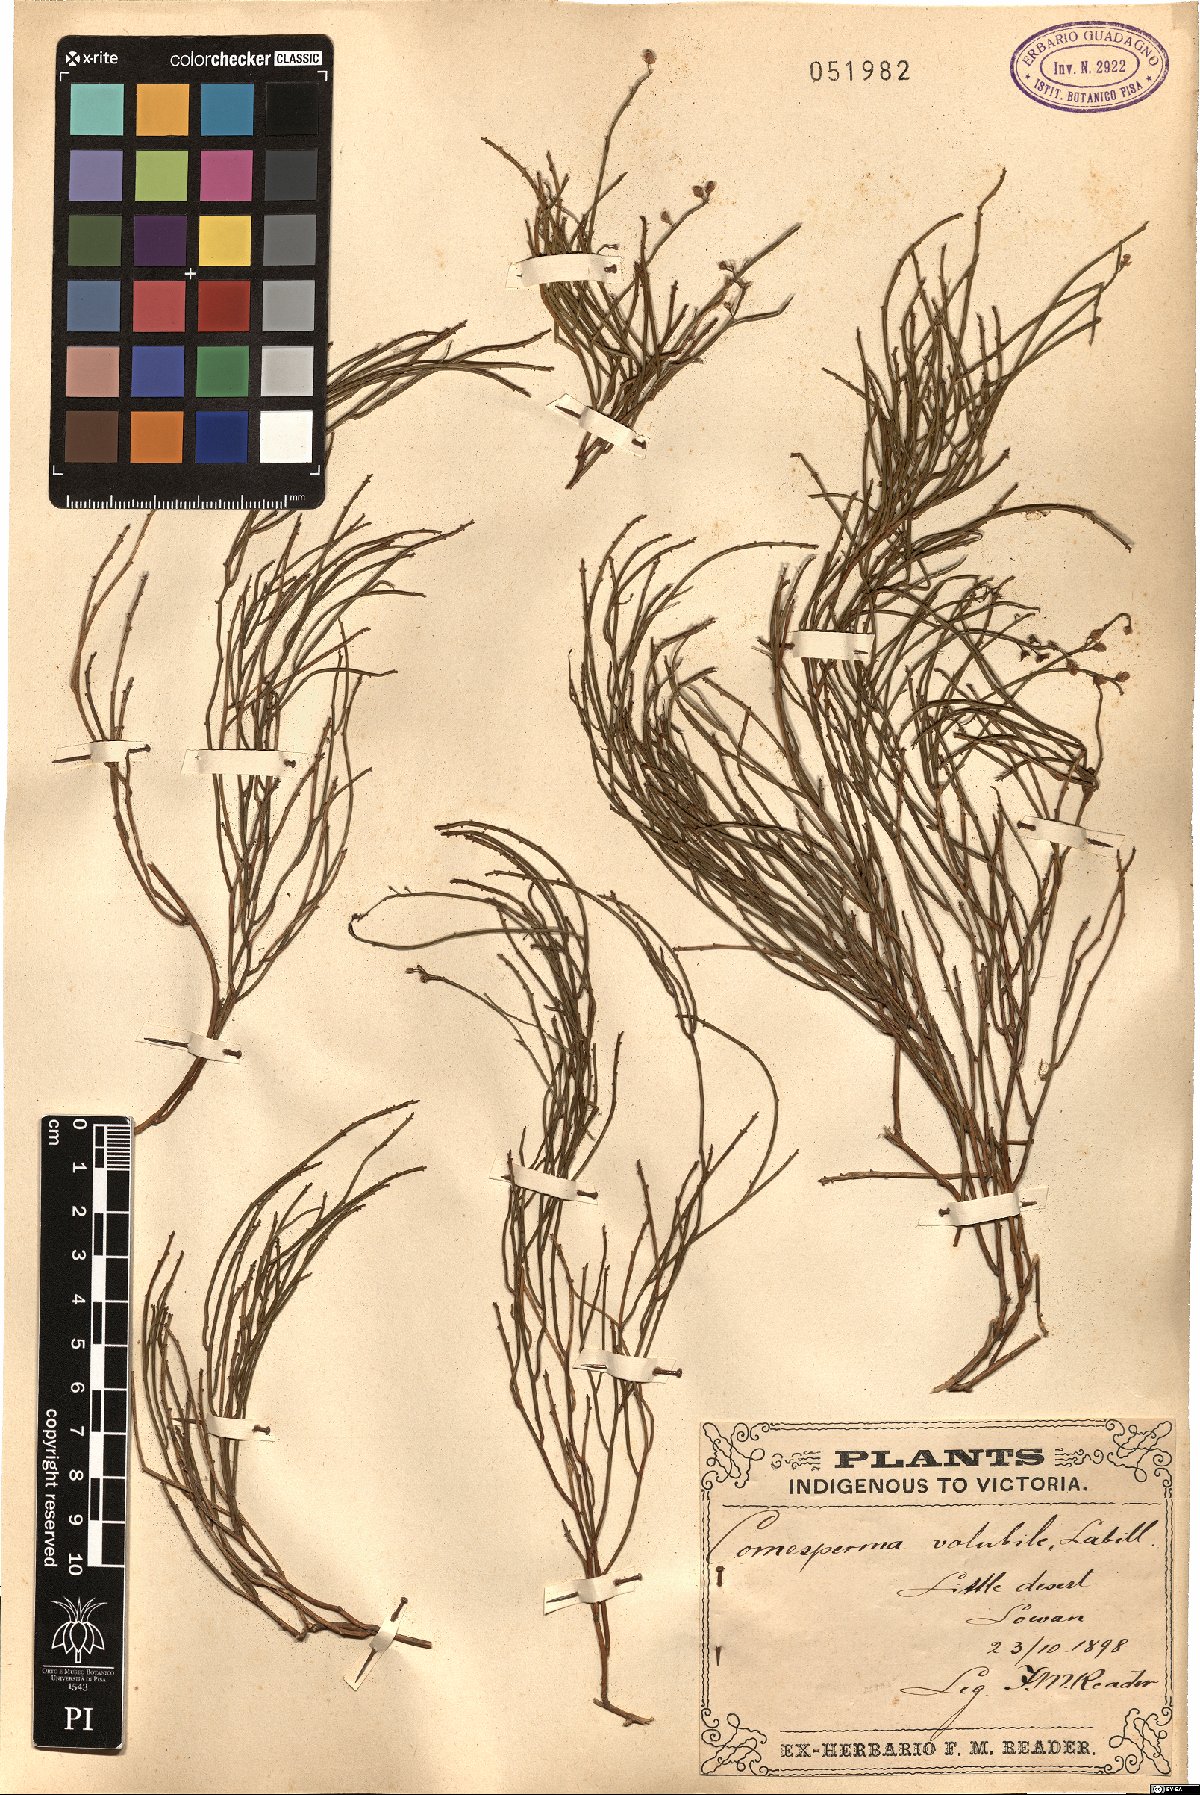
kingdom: Plantae
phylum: Tracheophyta
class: Magnoliopsida
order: Fabales
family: Polygalaceae
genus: Comesperma
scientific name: Comesperma volubile
